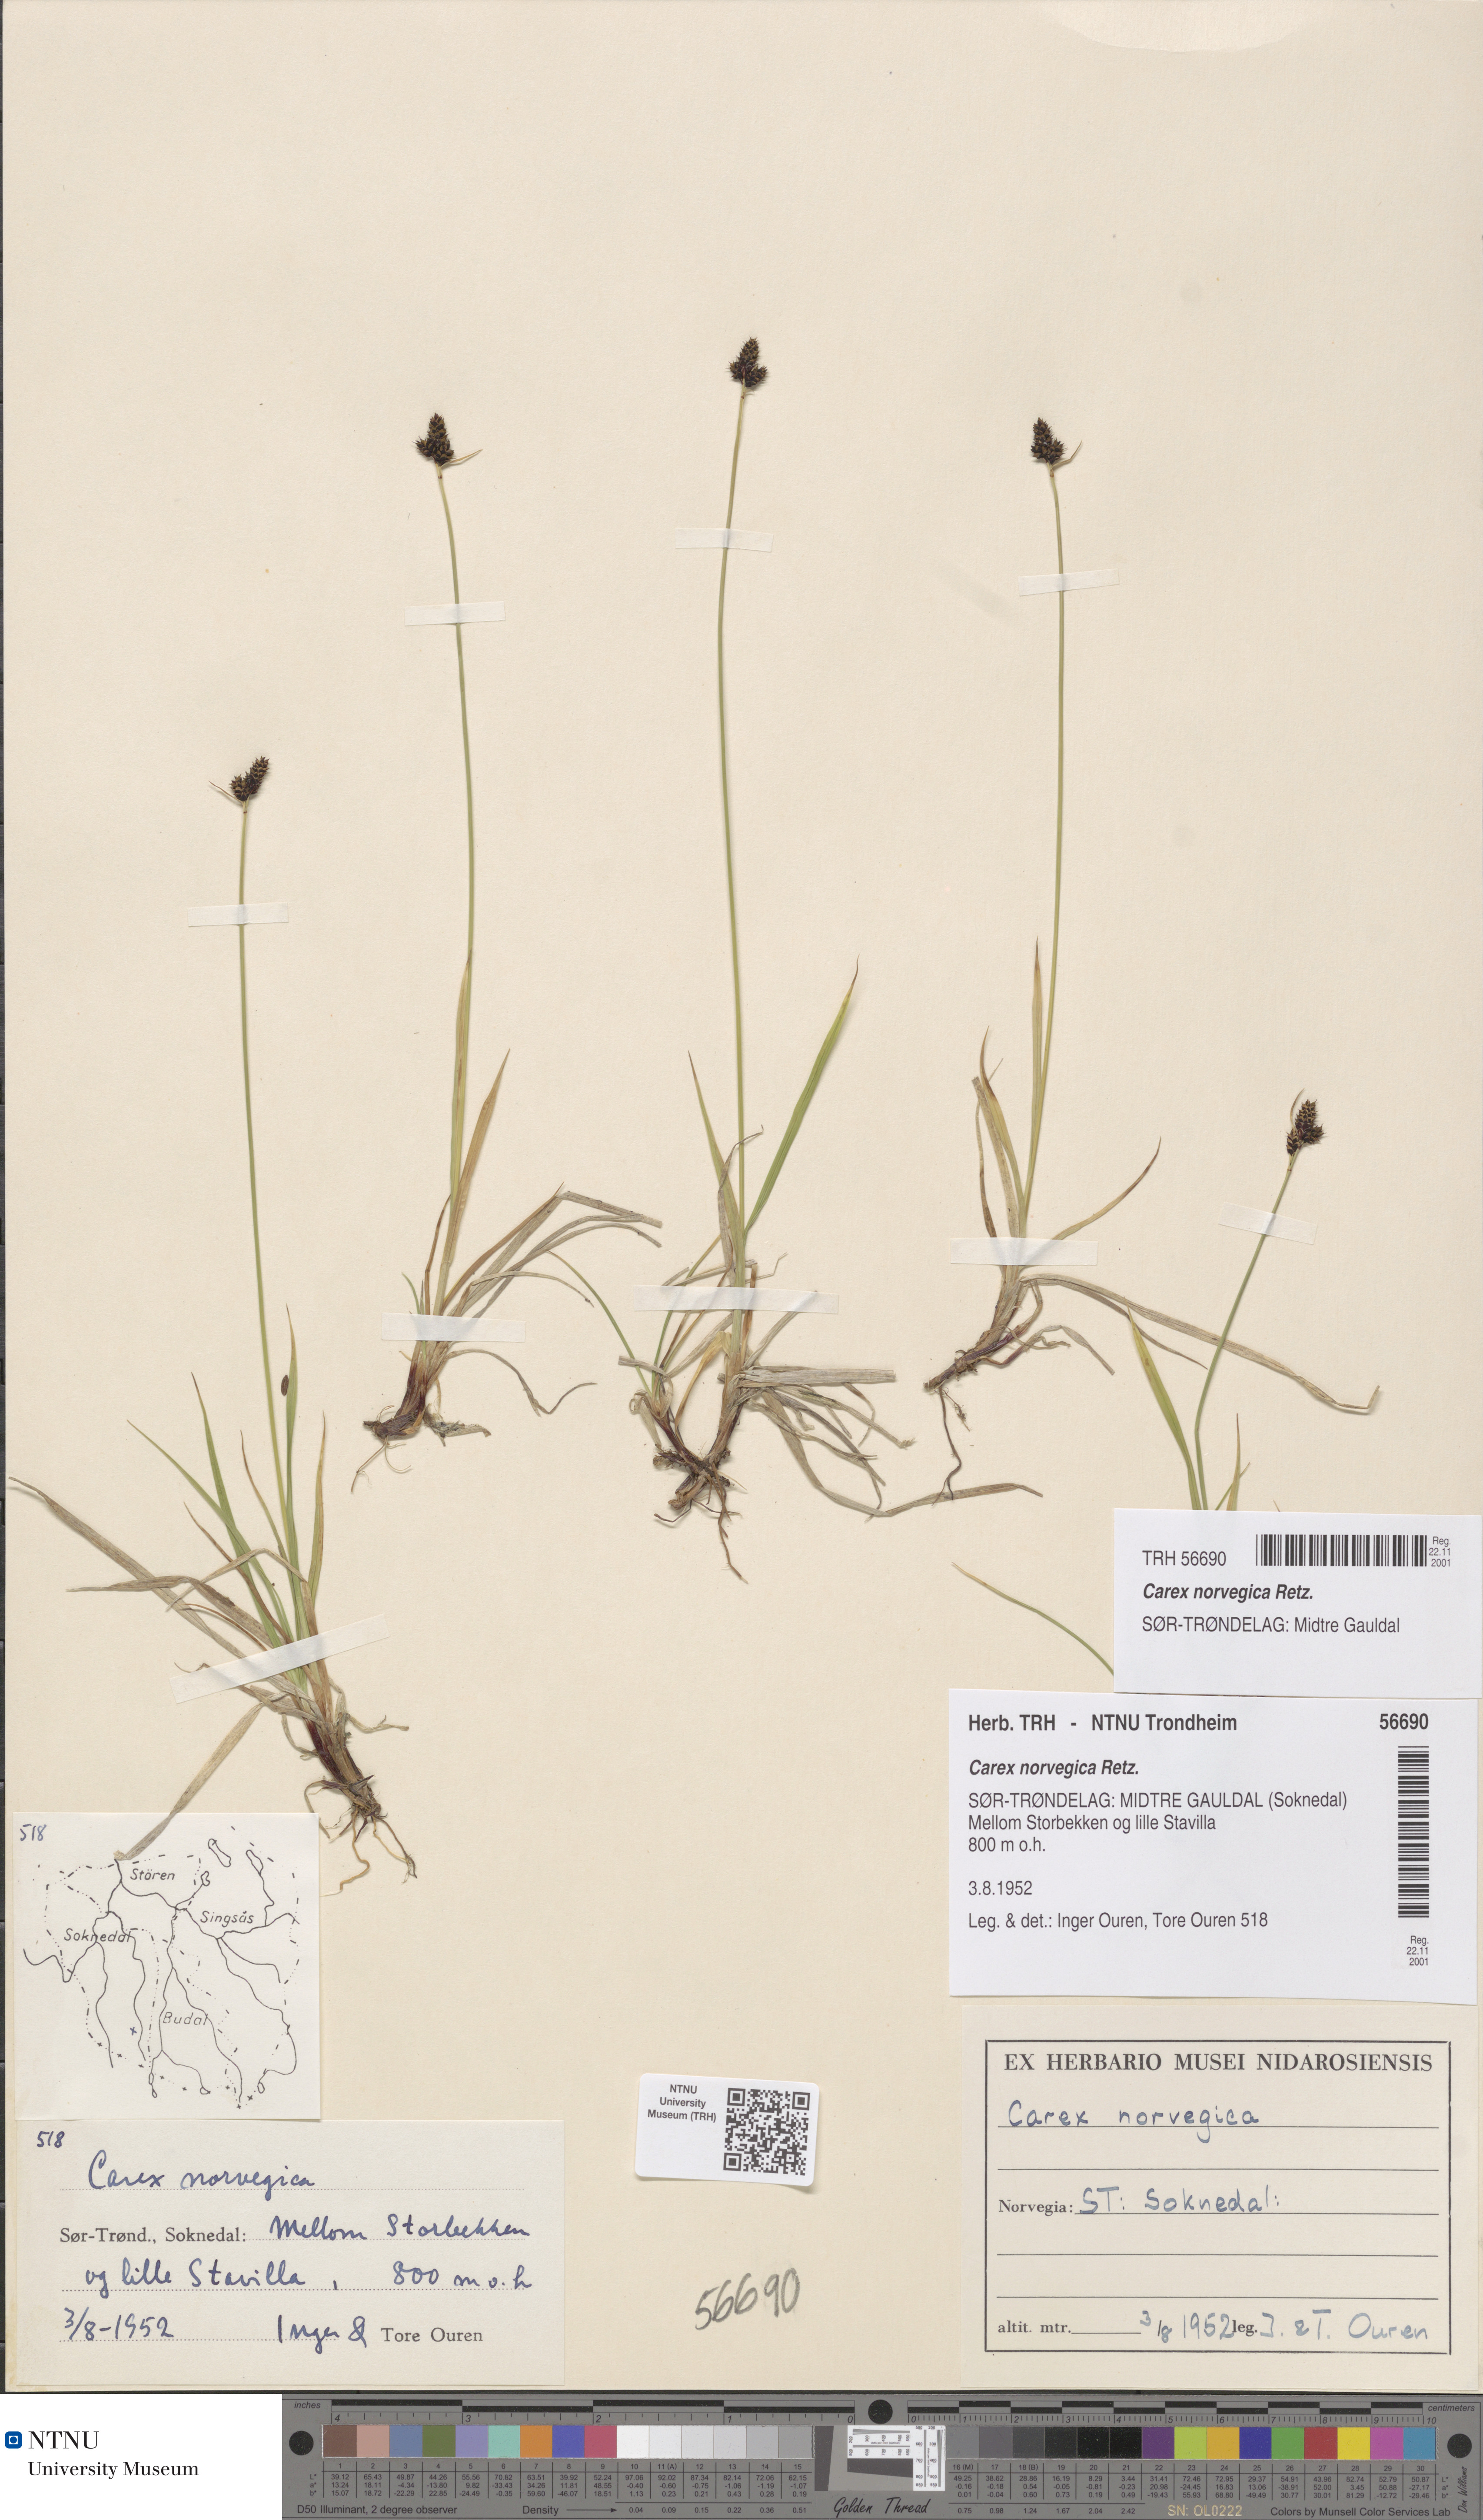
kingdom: Plantae
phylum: Tracheophyta
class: Liliopsida
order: Poales
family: Cyperaceae
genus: Carex
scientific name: Carex norvegica
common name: Close-headed alpine-sedge
